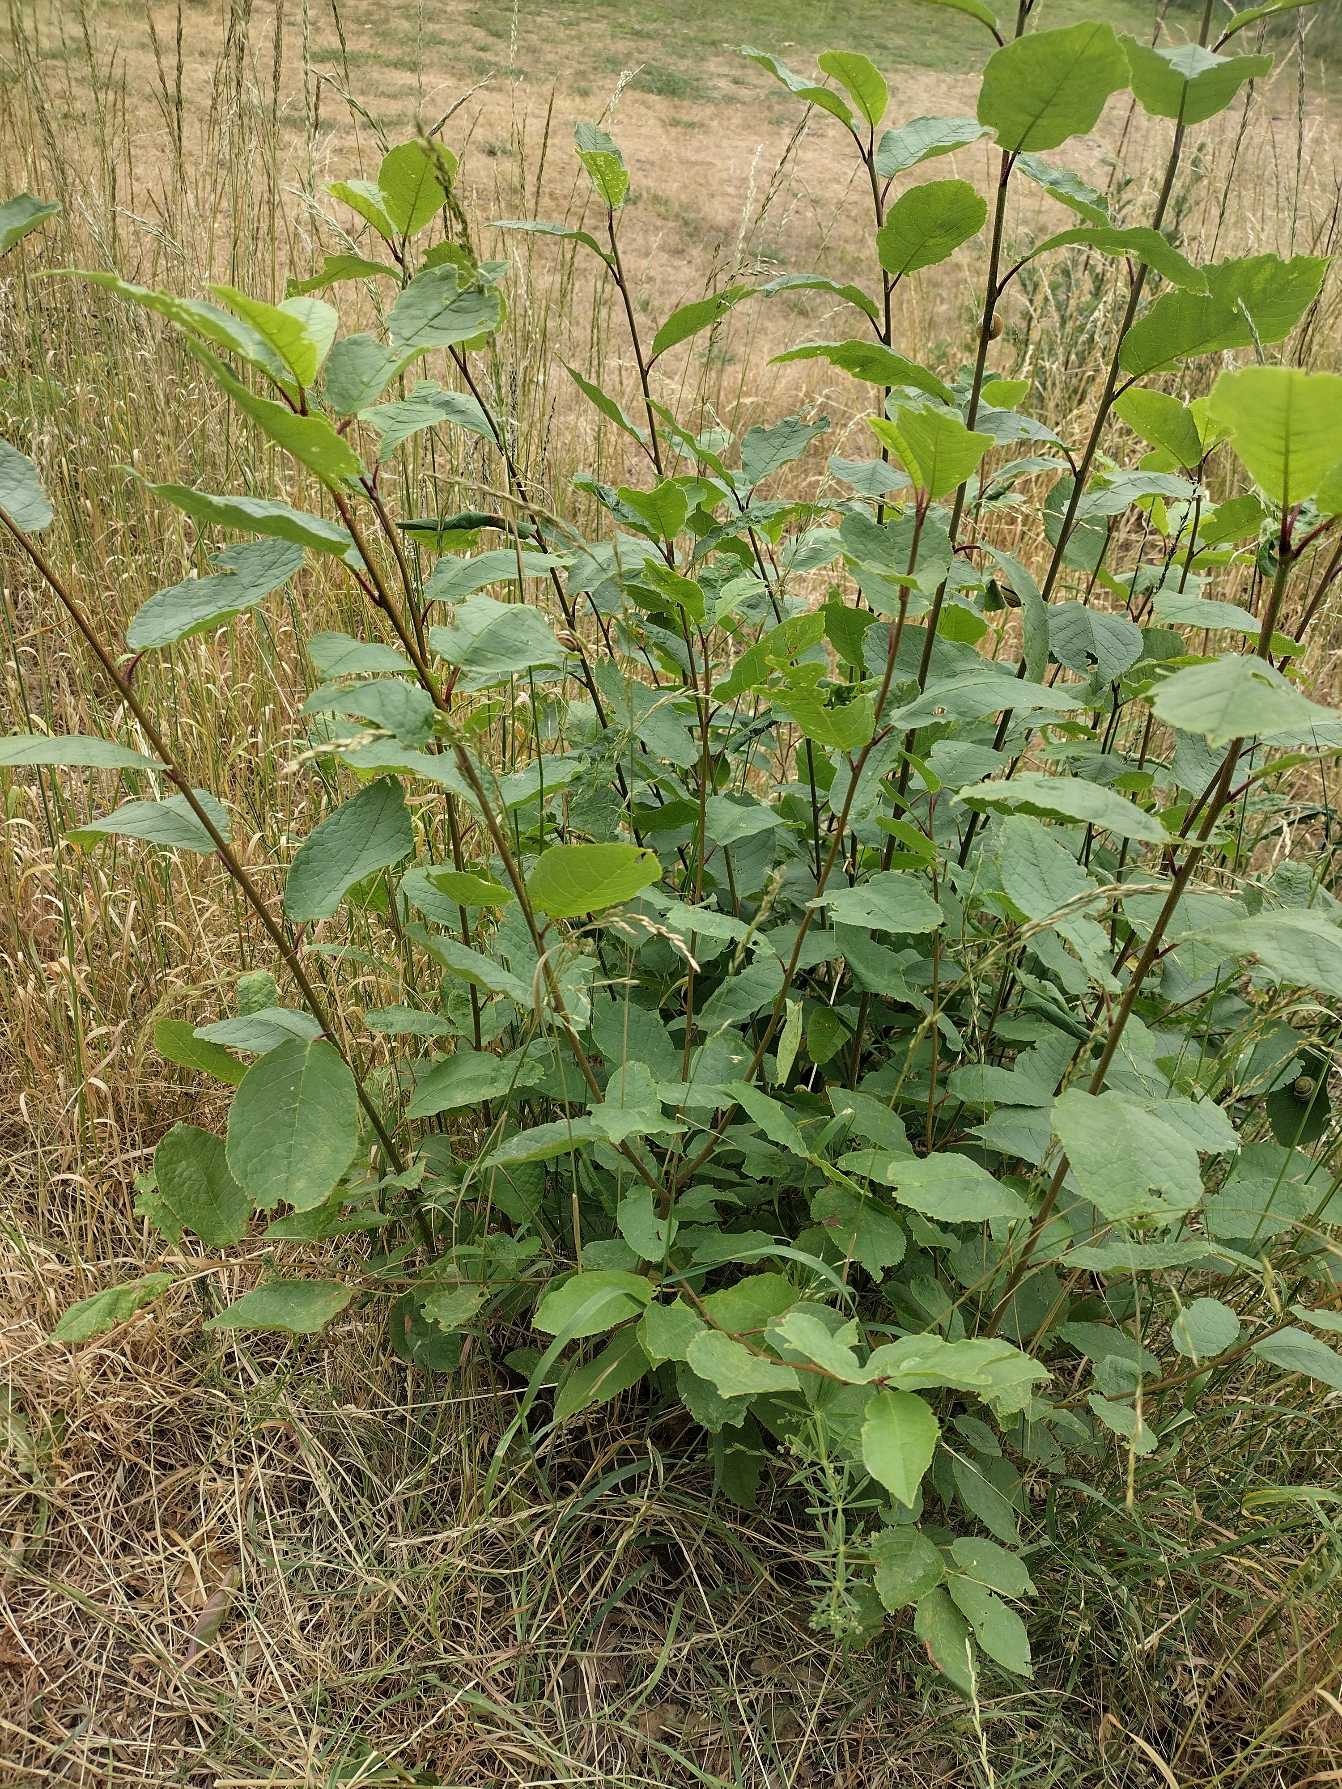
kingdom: Plantae
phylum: Tracheophyta
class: Magnoliopsida
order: Rosales
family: Rosaceae
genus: Prunus
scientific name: Prunus padus
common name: Almindelig hæg
